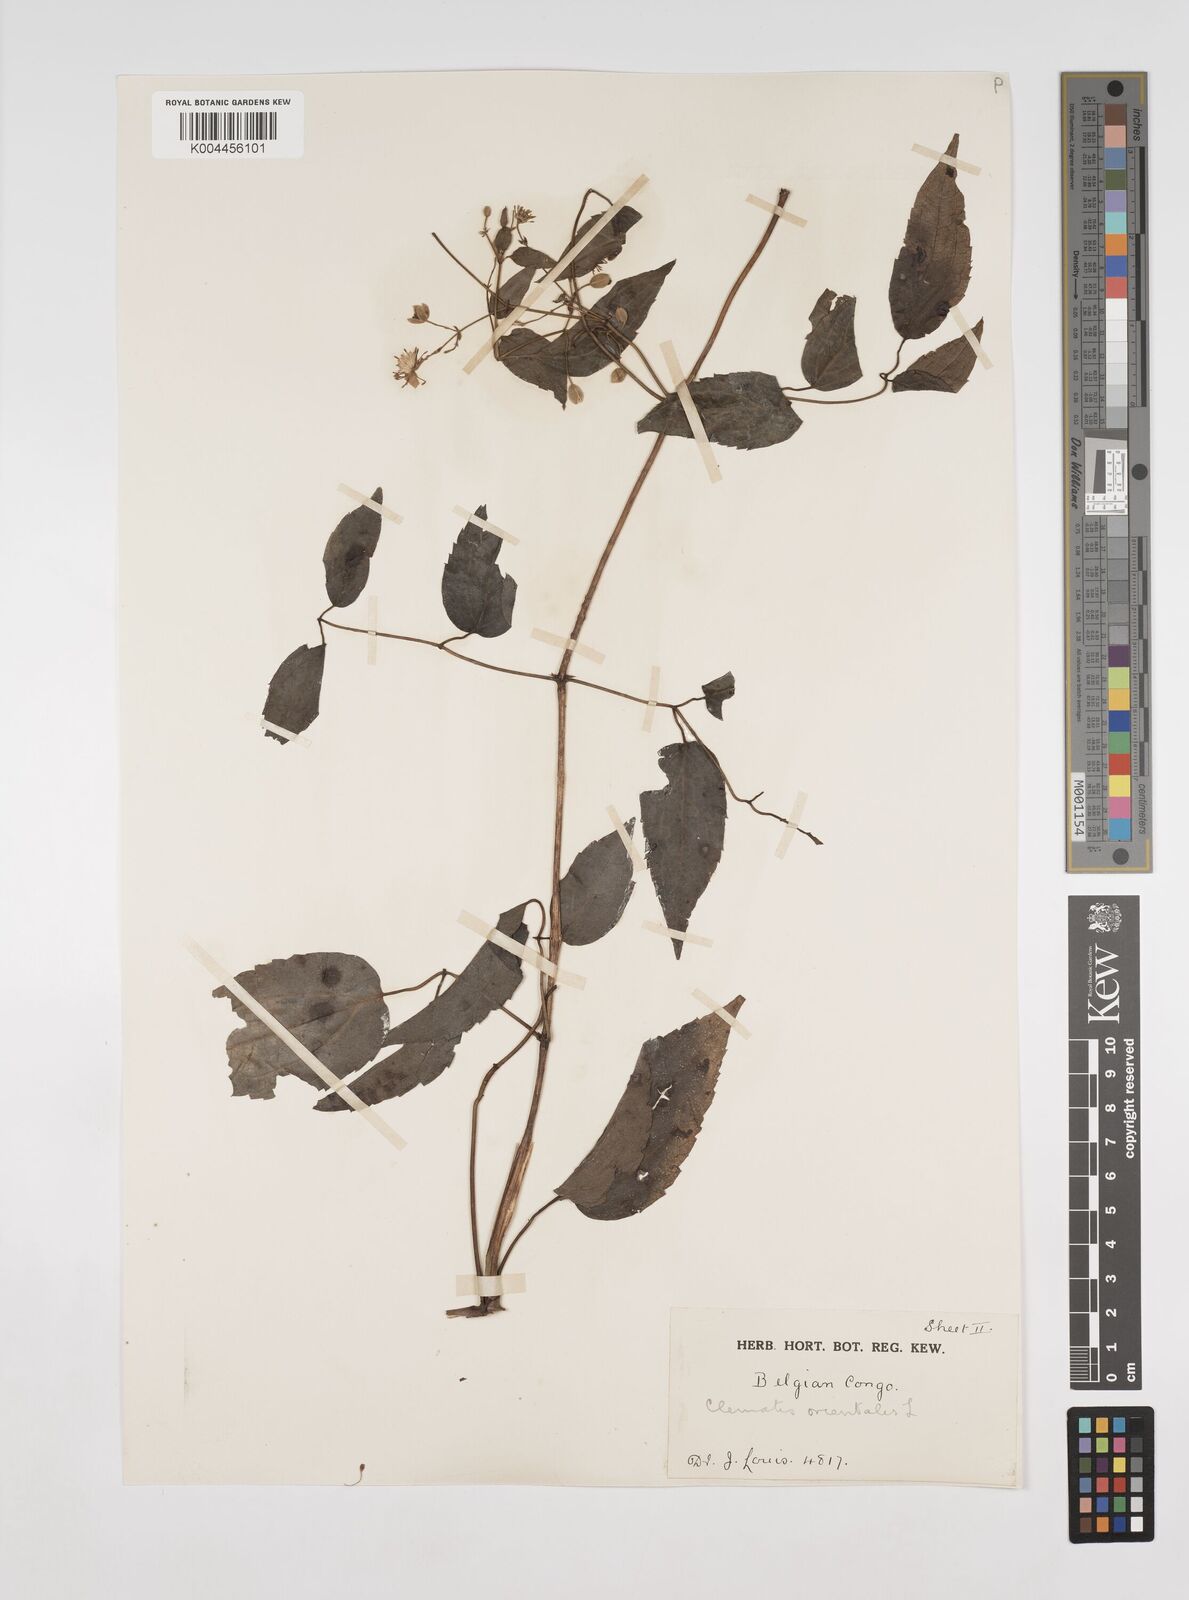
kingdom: Plantae
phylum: Tracheophyta
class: Magnoliopsida
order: Ranunculales
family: Ranunculaceae
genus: Clematis
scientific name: Clematis simensis
